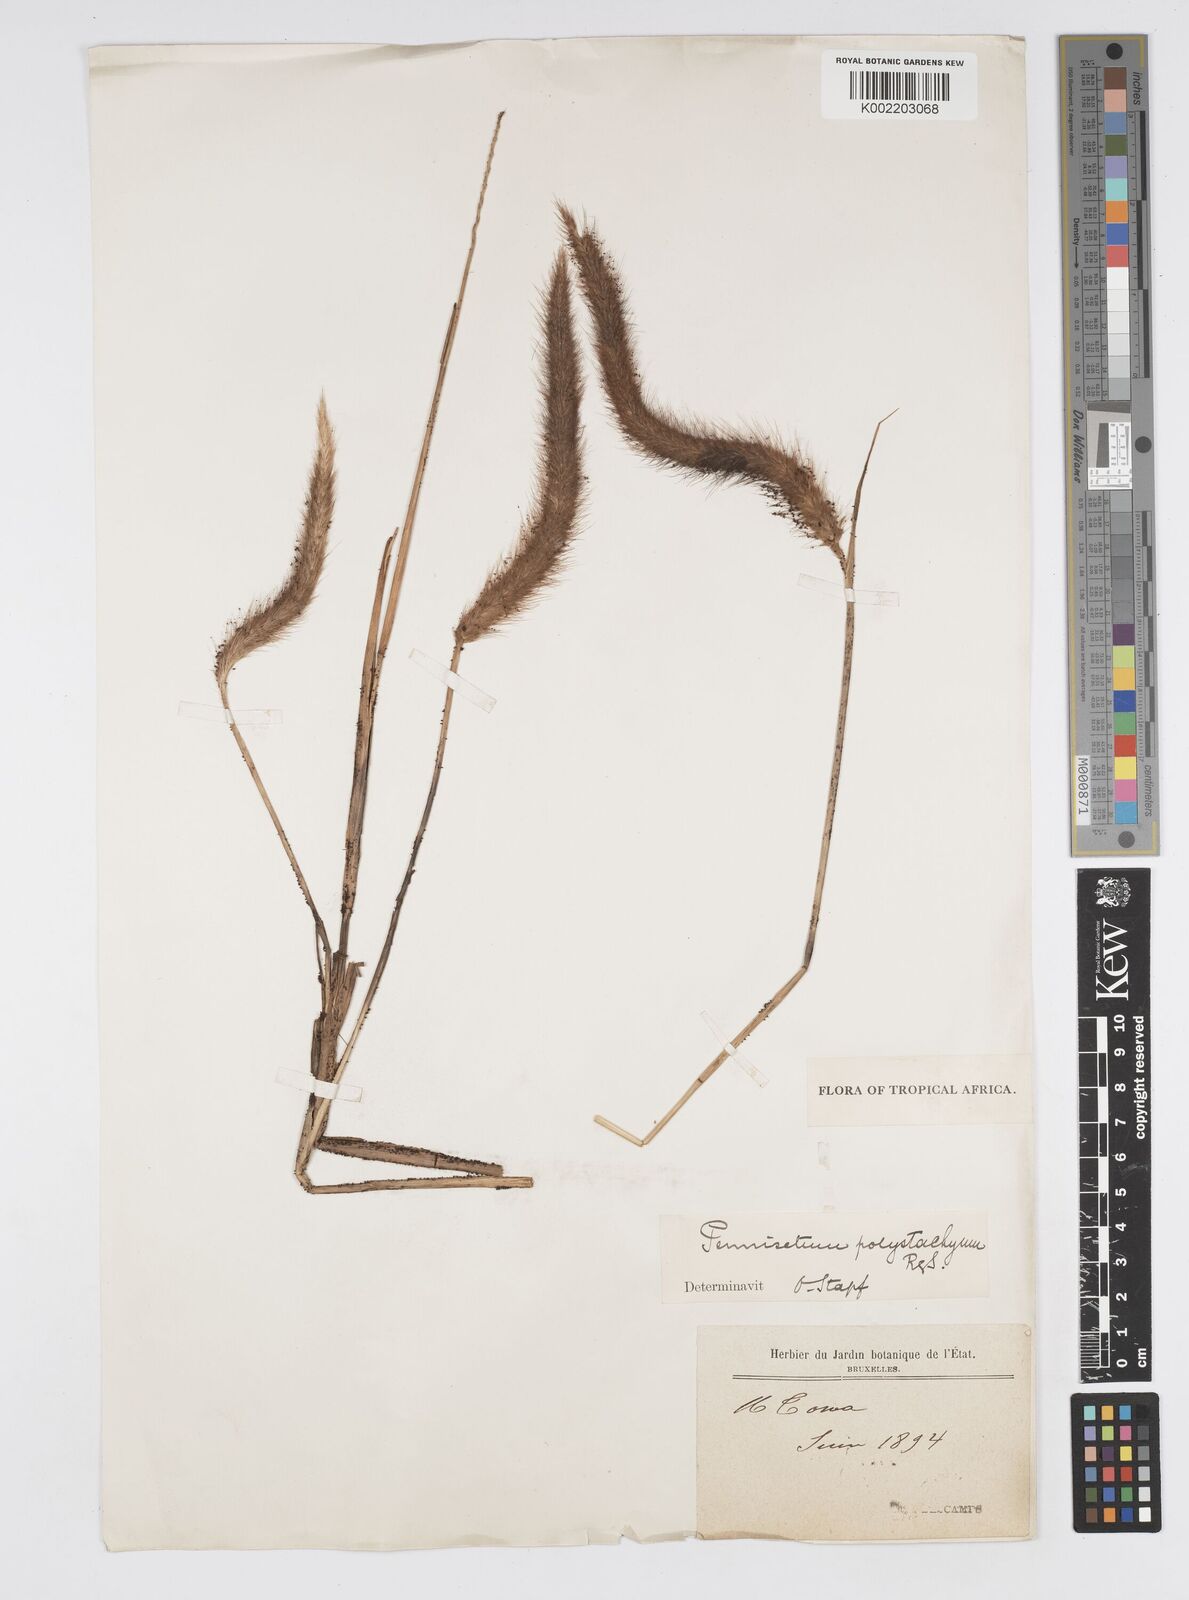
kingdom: Plantae
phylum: Tracheophyta
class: Liliopsida
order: Poales
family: Poaceae
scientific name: Poaceae
